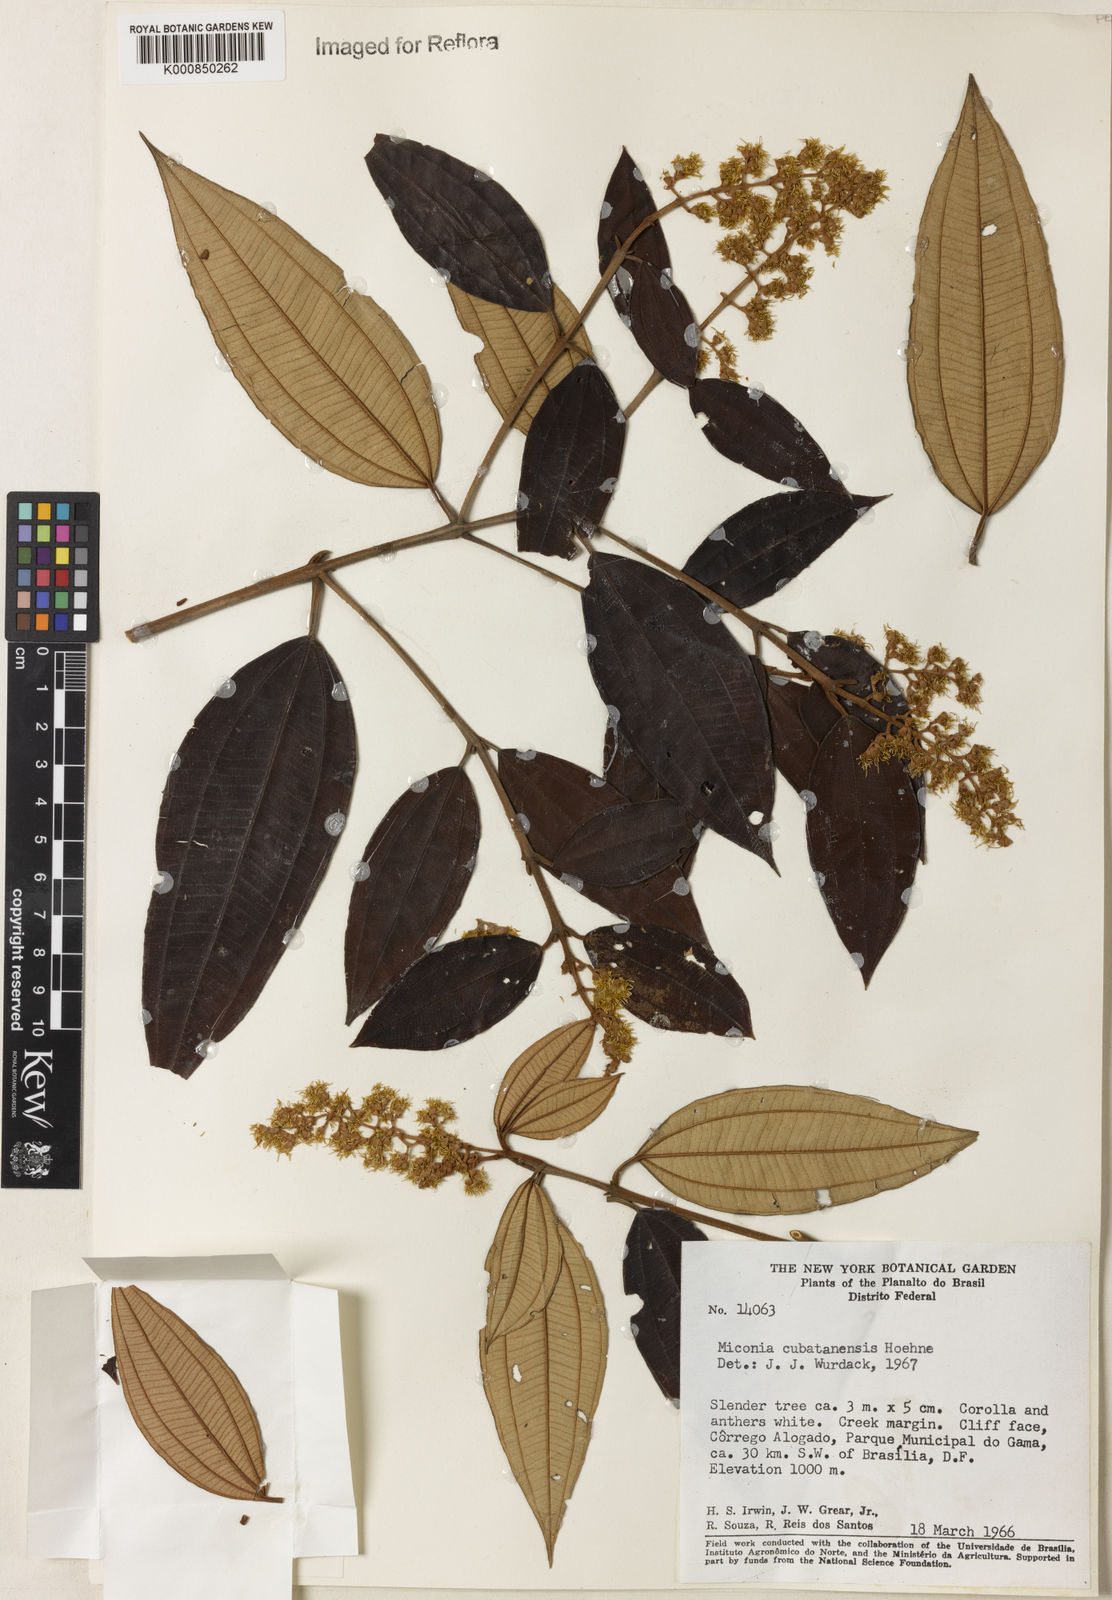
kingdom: Plantae
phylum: Tracheophyta
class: Magnoliopsida
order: Myrtales
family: Melastomataceae
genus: Miconia
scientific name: Miconia cubatanensis
